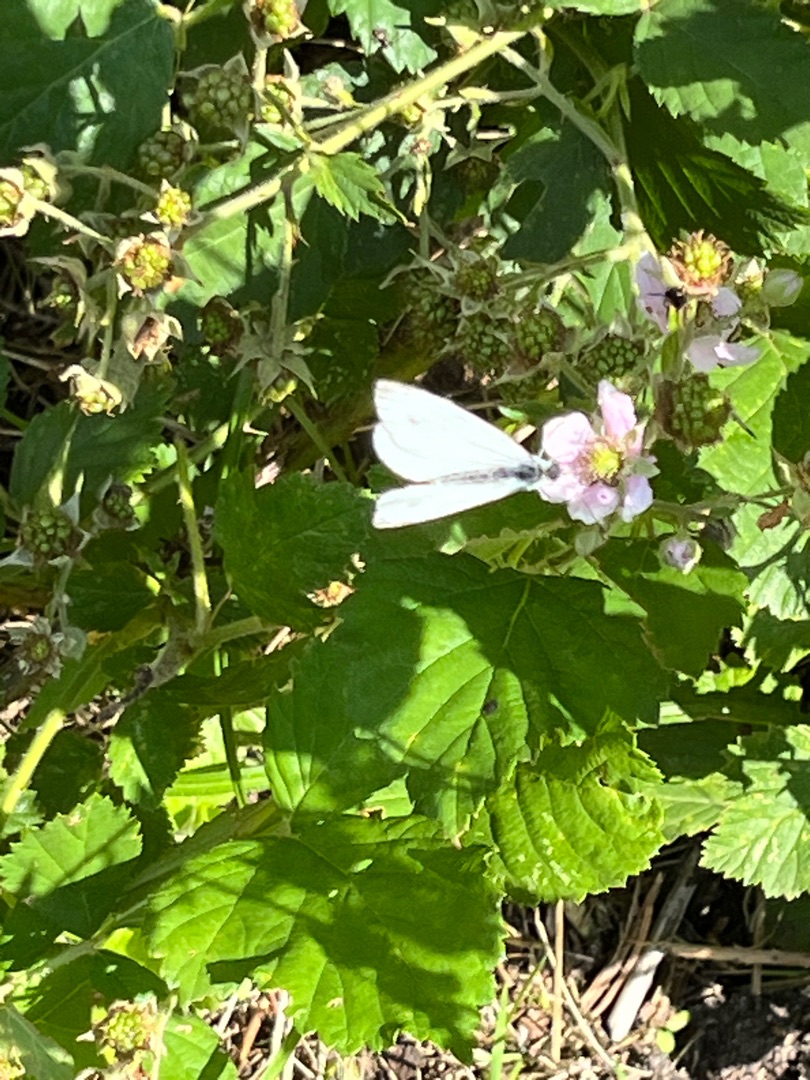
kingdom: Animalia
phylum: Arthropoda
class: Insecta
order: Lepidoptera
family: Pieridae
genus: Pieris
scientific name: Pieris napi
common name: Grønåret kålsommerfugl
